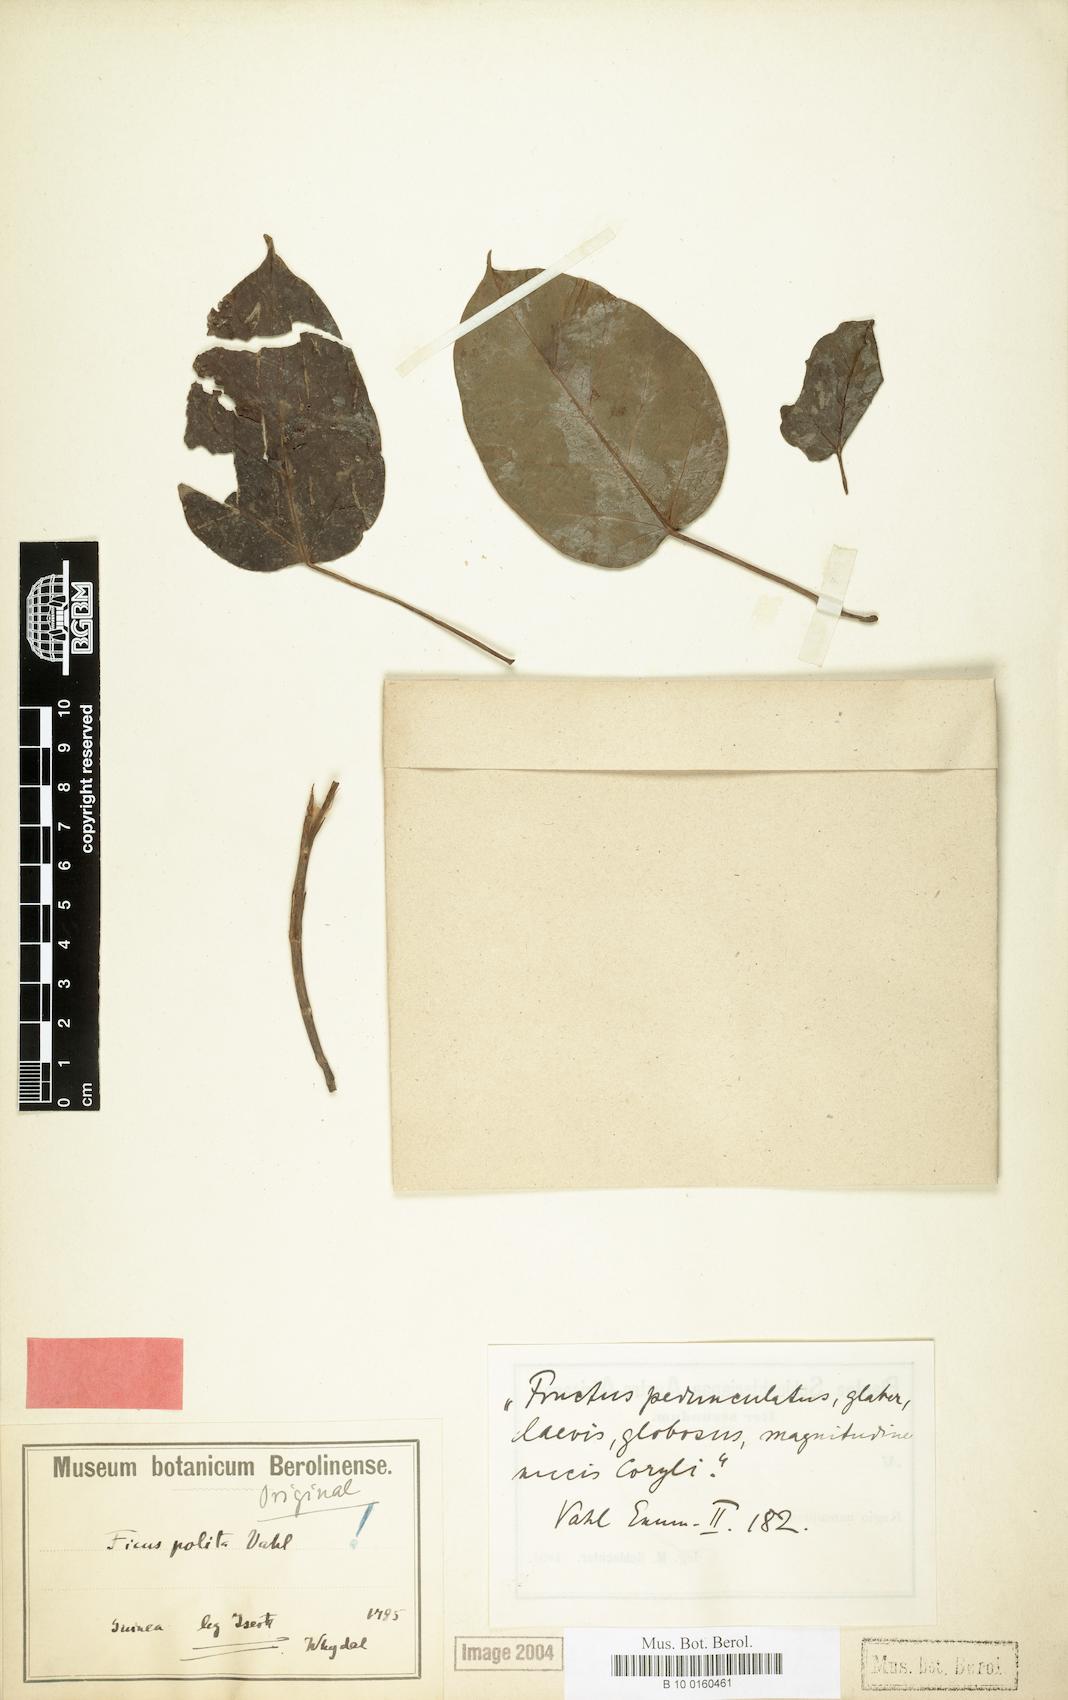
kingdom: Plantae
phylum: Tracheophyta
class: Magnoliopsida
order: Rosales
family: Moraceae
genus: Ficus
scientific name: Ficus polita
